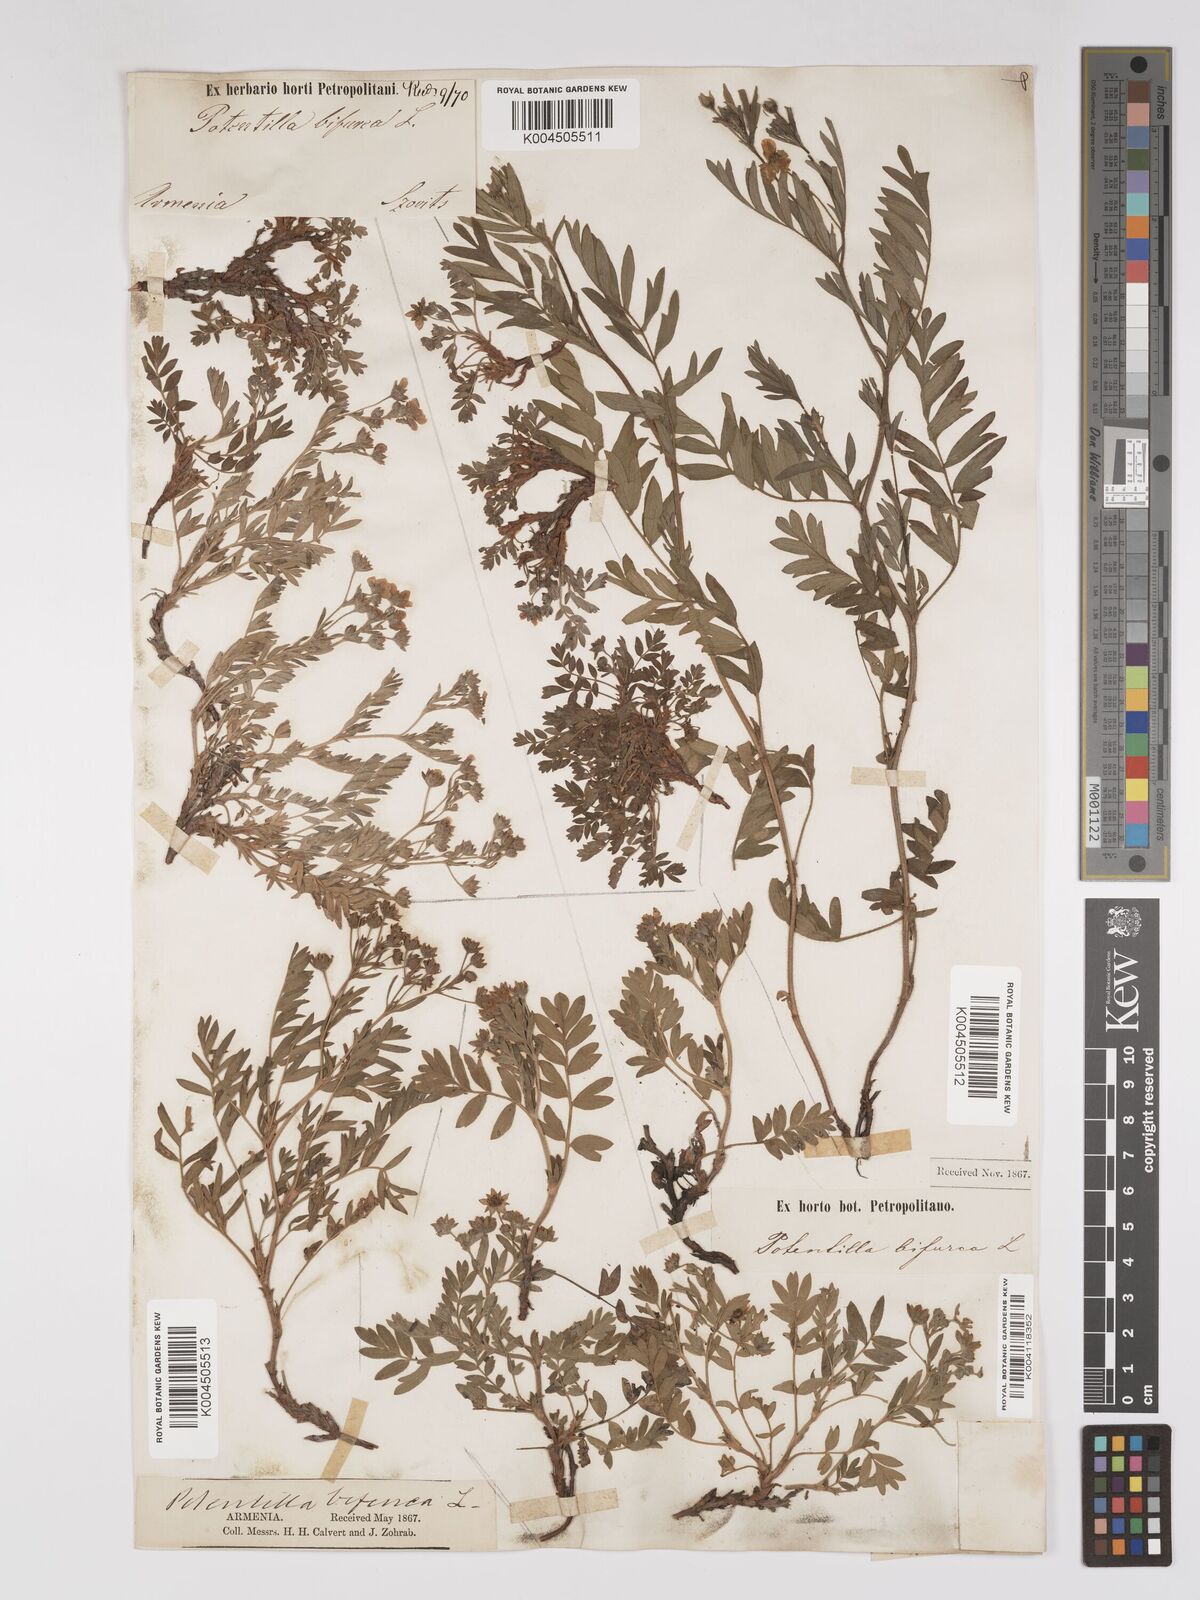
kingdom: Plantae
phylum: Tracheophyta
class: Magnoliopsida
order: Rosales
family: Rosaceae
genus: Sibbaldianthe
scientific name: Sibbaldianthe bifurca
